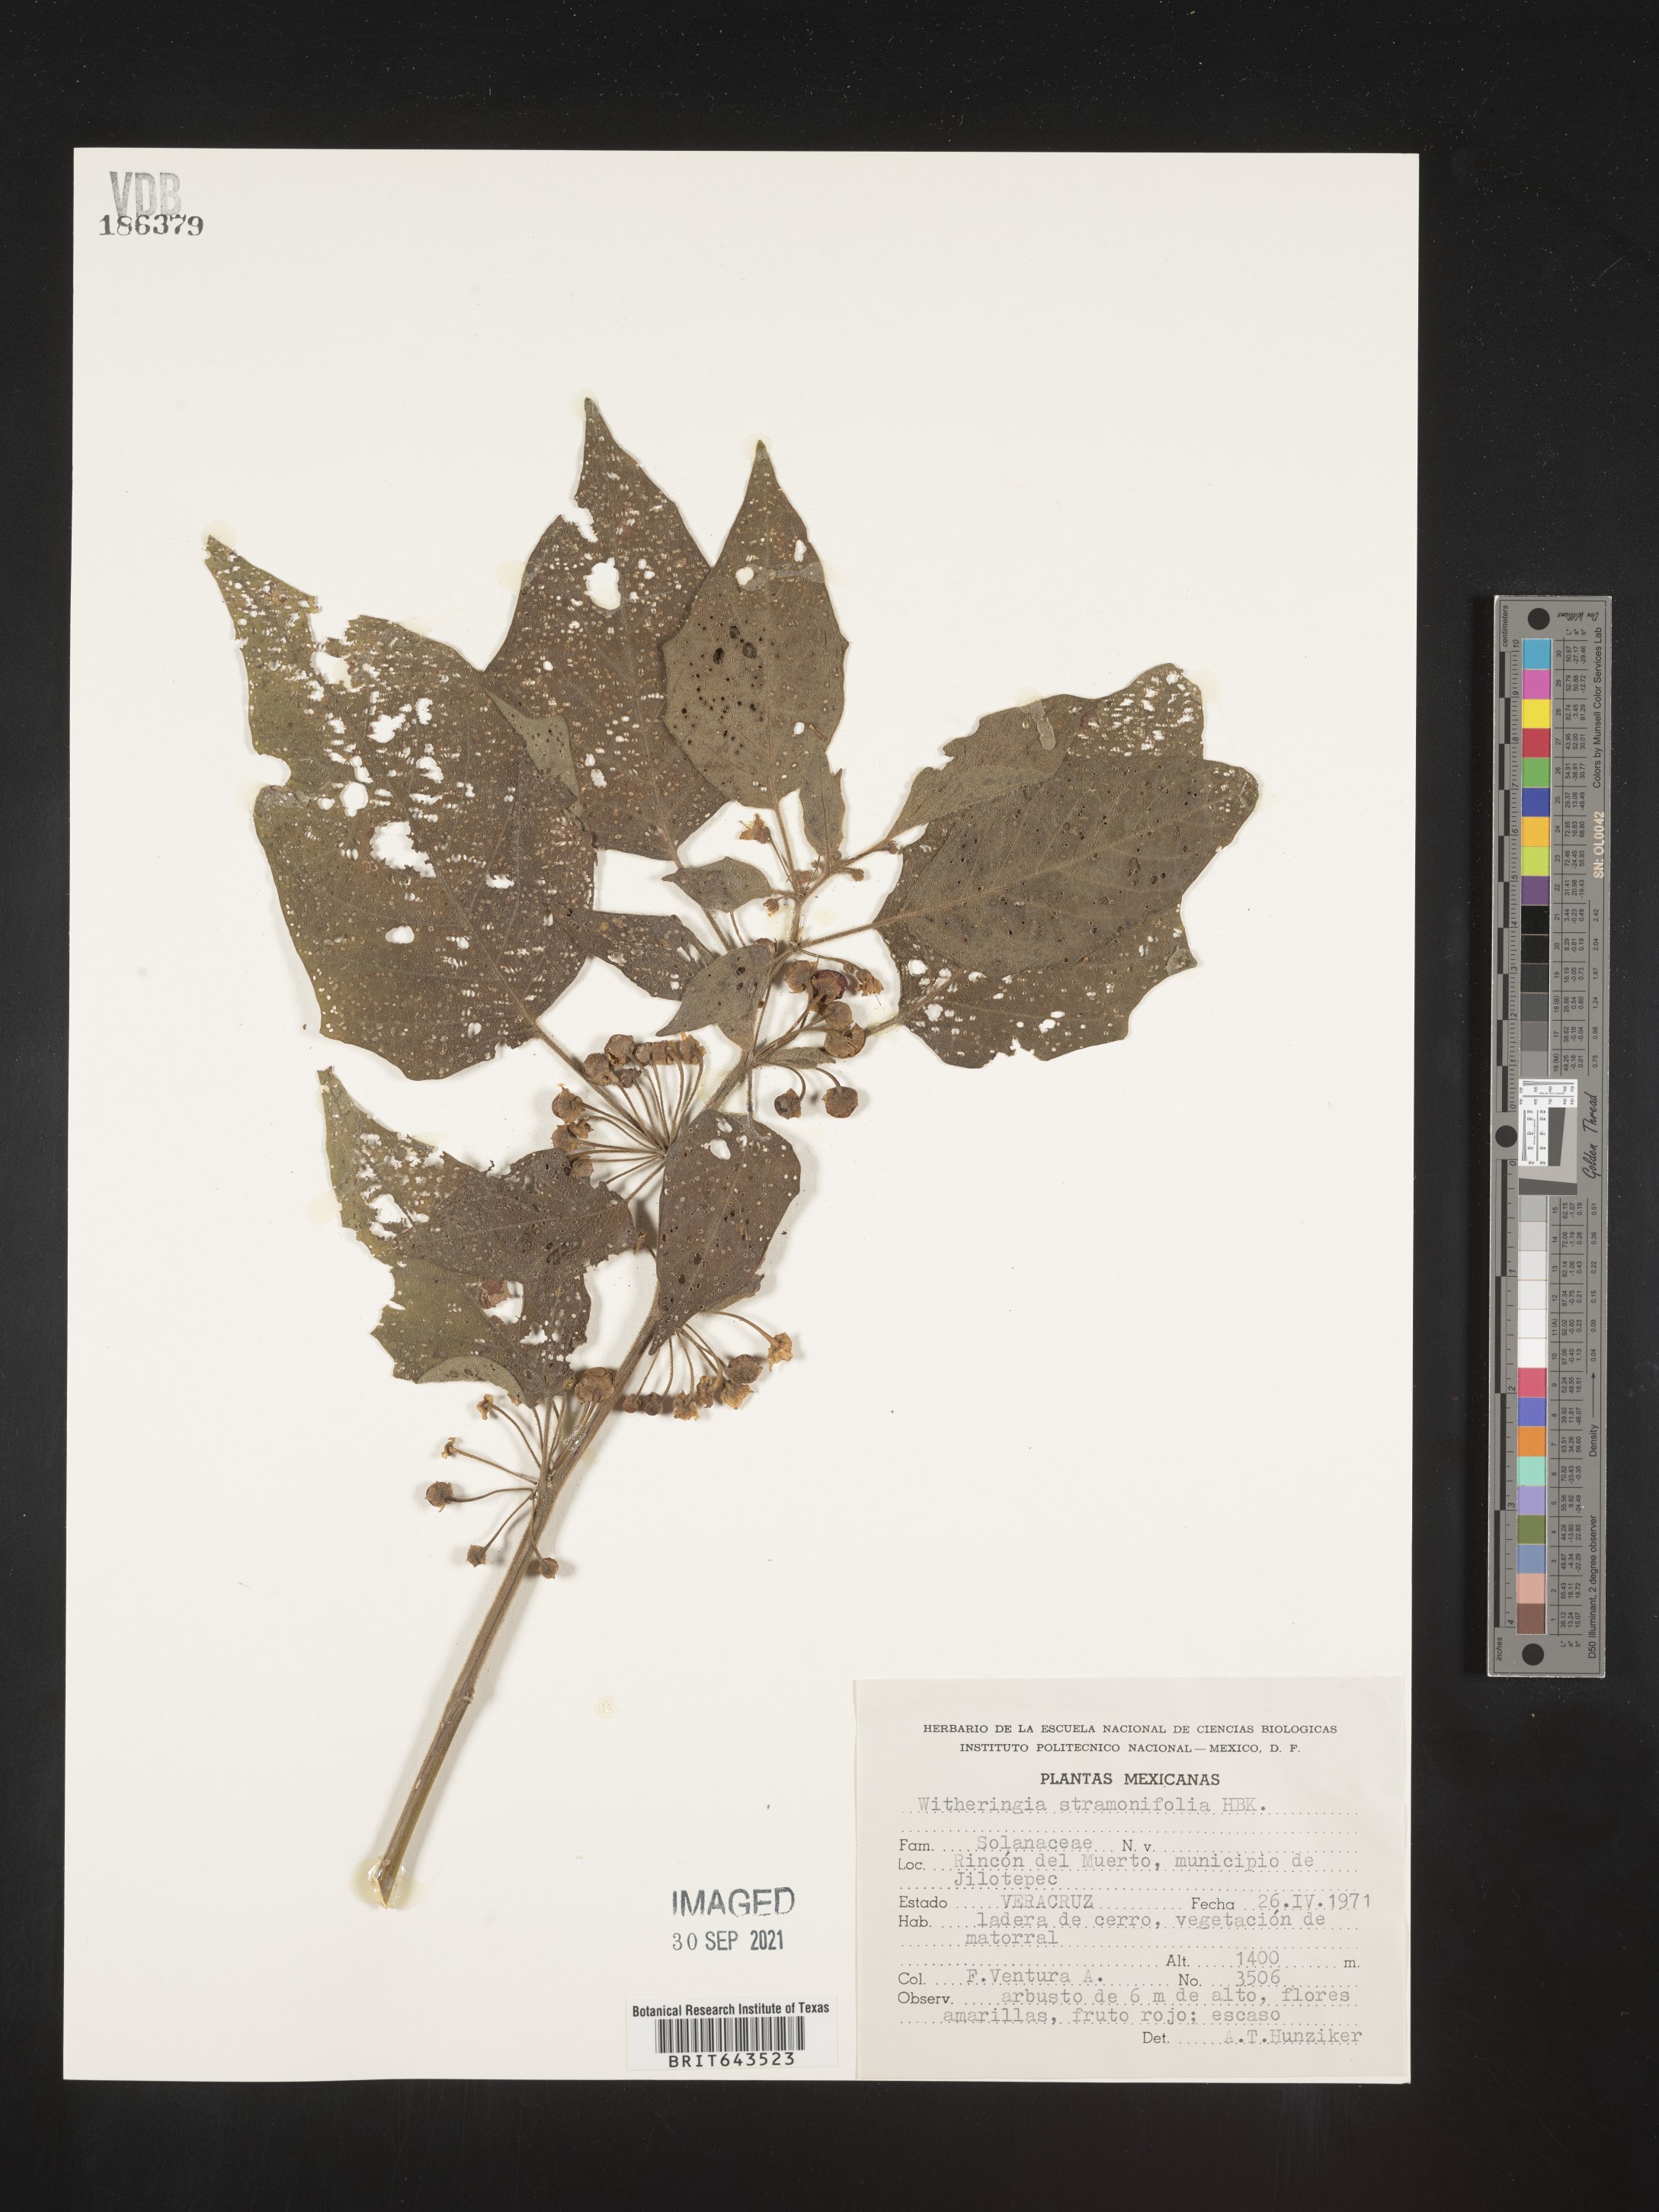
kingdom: Plantae
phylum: Tracheophyta
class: Magnoliopsida
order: Solanales
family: Solanaceae
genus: Witheringia
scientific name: Witheringia
